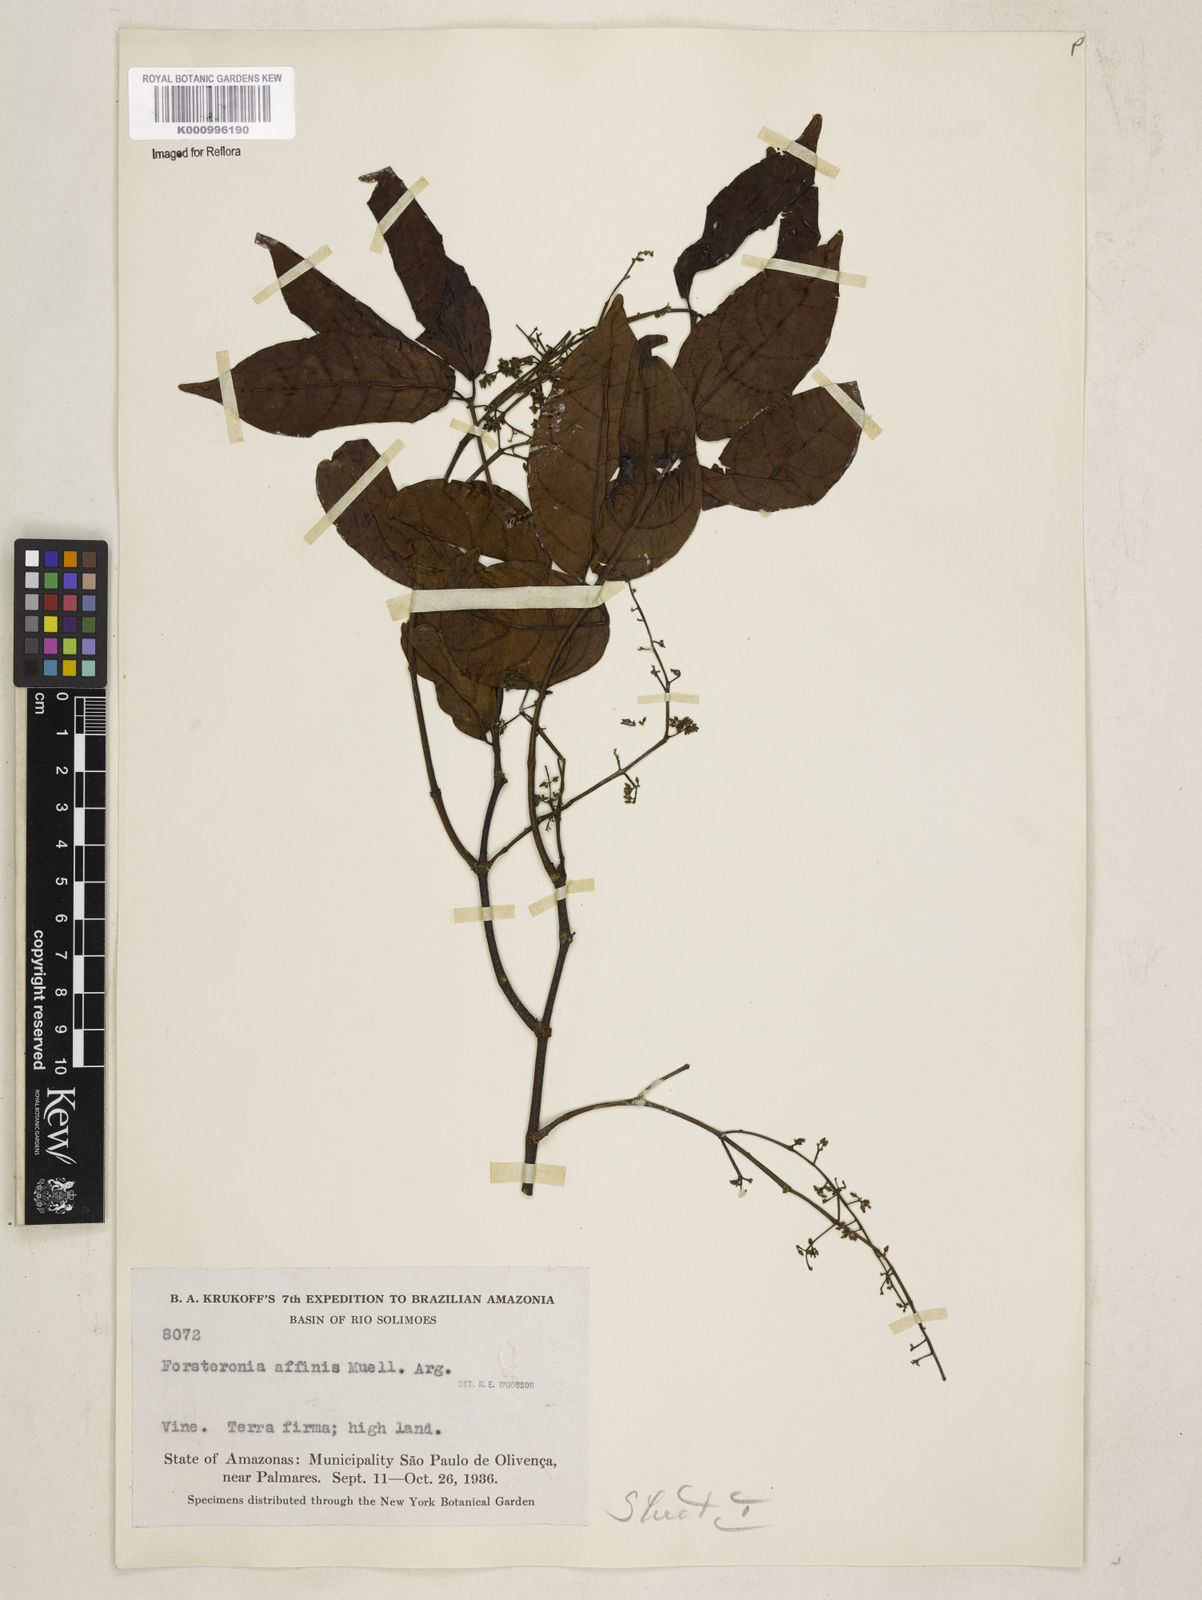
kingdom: Plantae
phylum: Tracheophyta
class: Magnoliopsida
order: Gentianales
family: Apocynaceae
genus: Forsteronia
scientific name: Forsteronia
